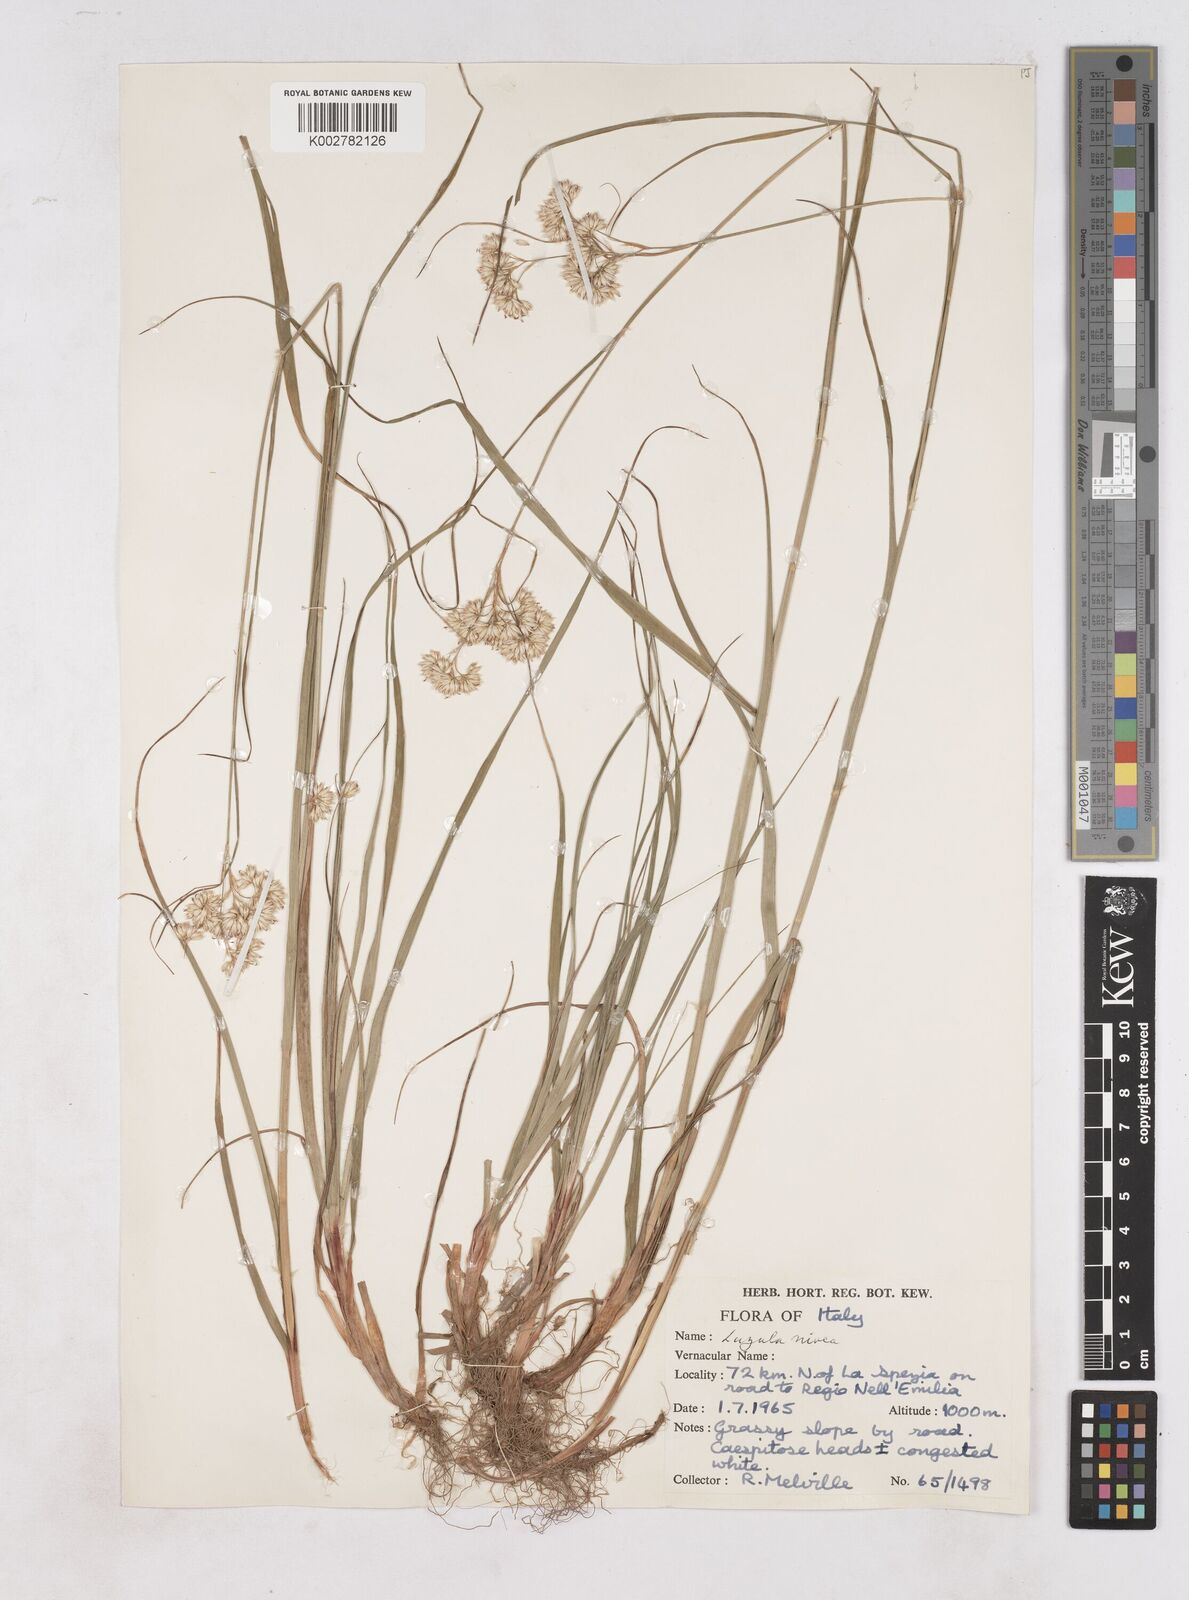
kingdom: Plantae
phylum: Tracheophyta
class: Liliopsida
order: Poales
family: Juncaceae
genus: Luzula
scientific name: Luzula nivea
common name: Snow-white wood-rush
